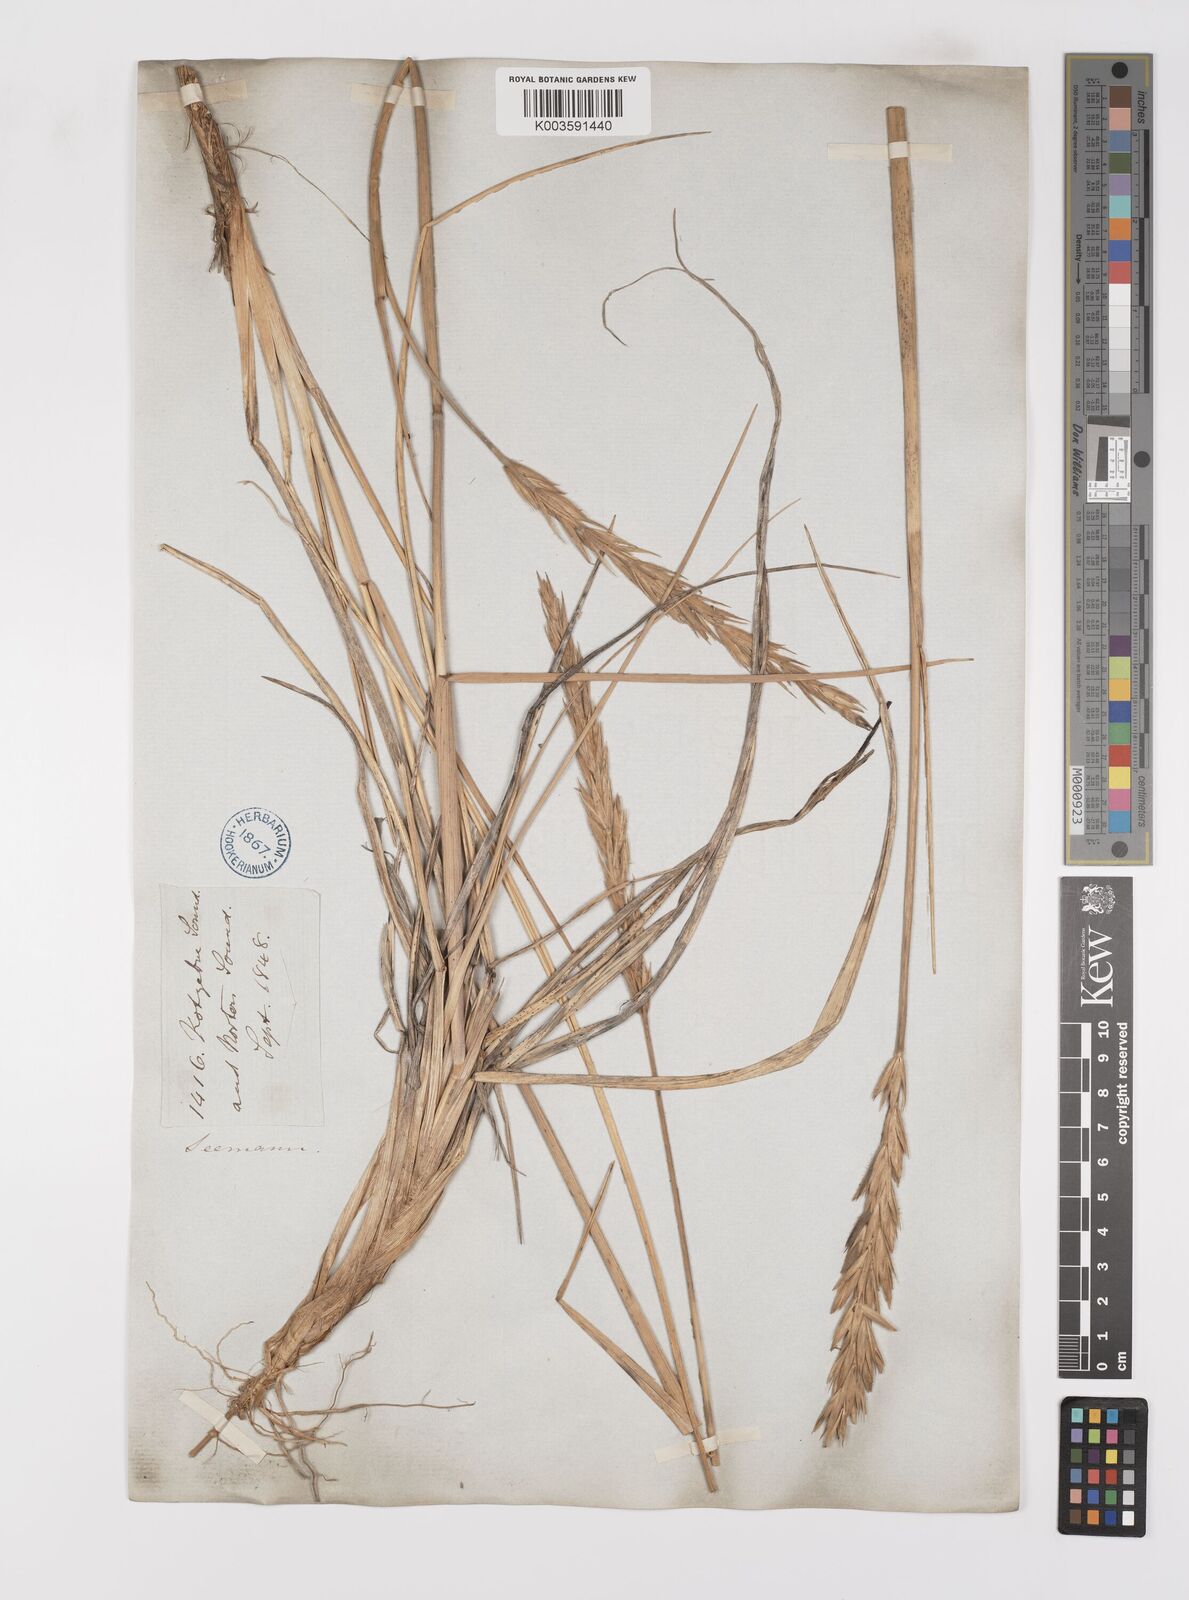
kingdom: Plantae
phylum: Tracheophyta
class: Liliopsida
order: Poales
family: Poaceae
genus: Leymus
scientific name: Leymus mollis
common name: American dune grass
